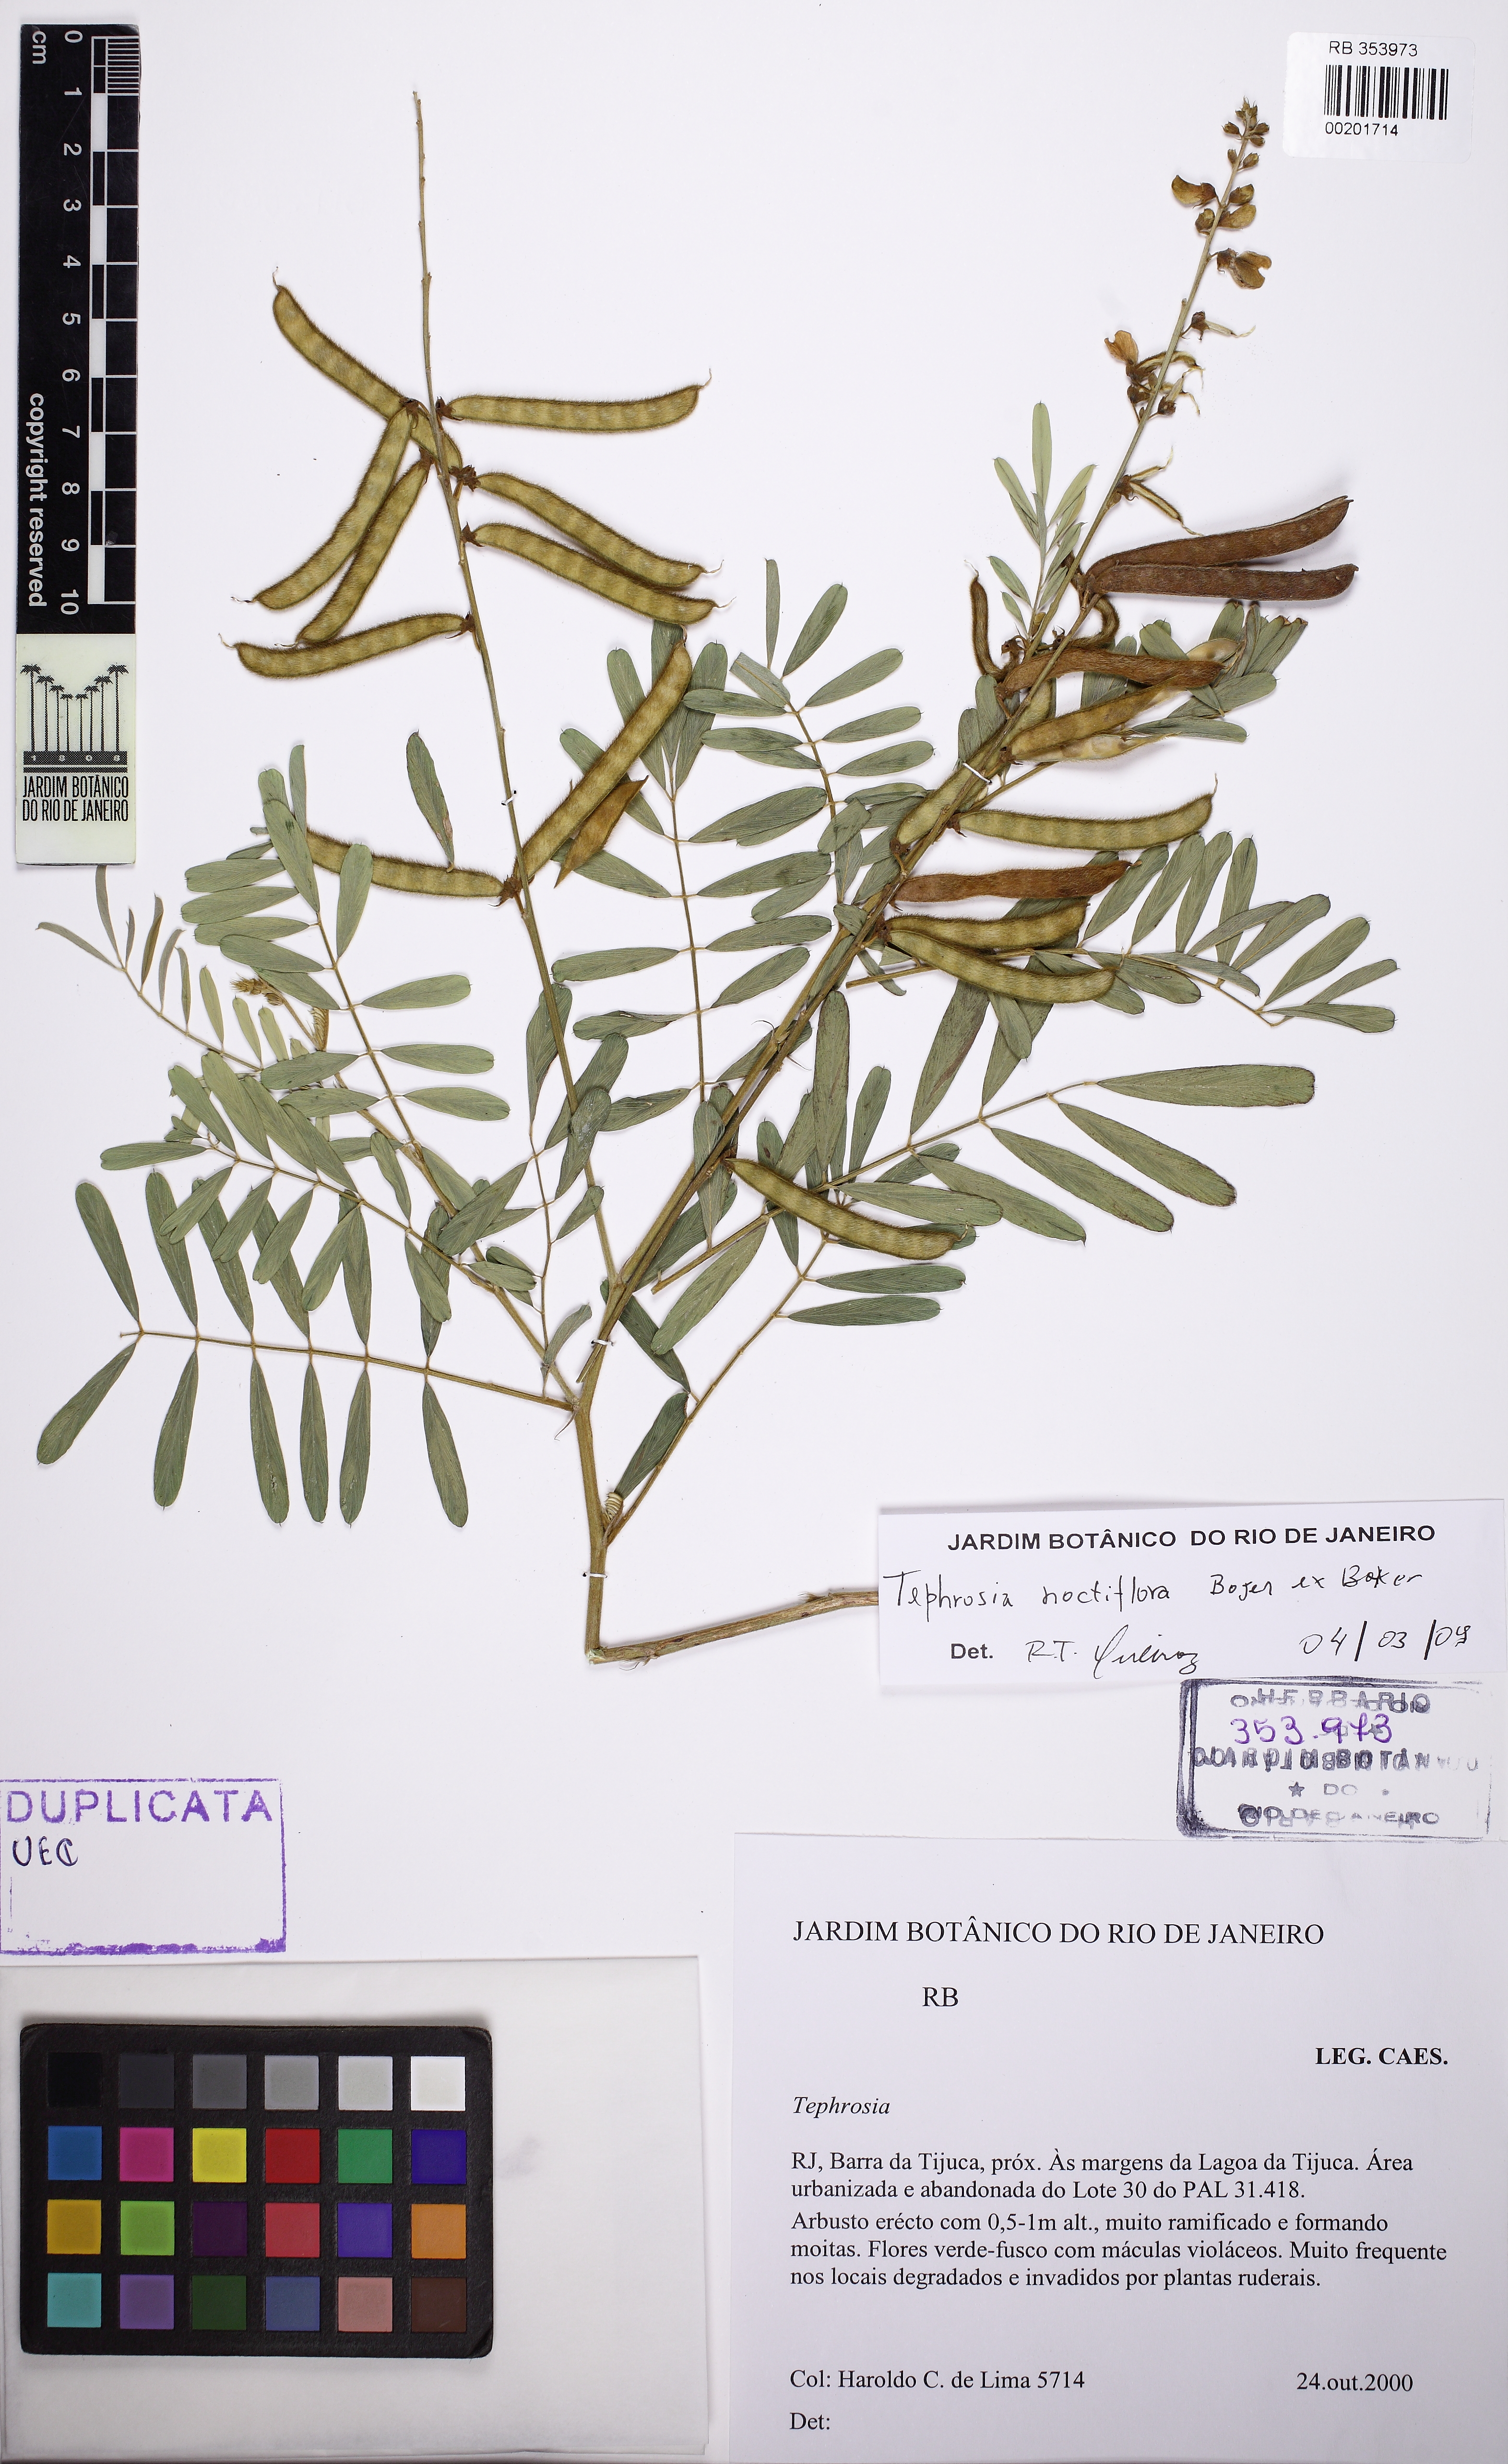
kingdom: Plantae
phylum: Tracheophyta
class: Magnoliopsida
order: Fabales
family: Fabaceae
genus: Tephrosia
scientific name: Tephrosia noctiflora
